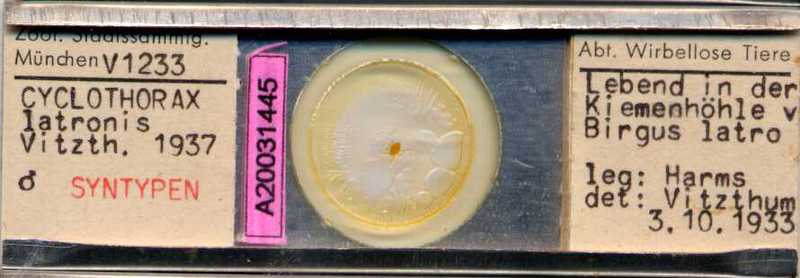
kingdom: Animalia
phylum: Arthropoda
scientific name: Arthropoda
